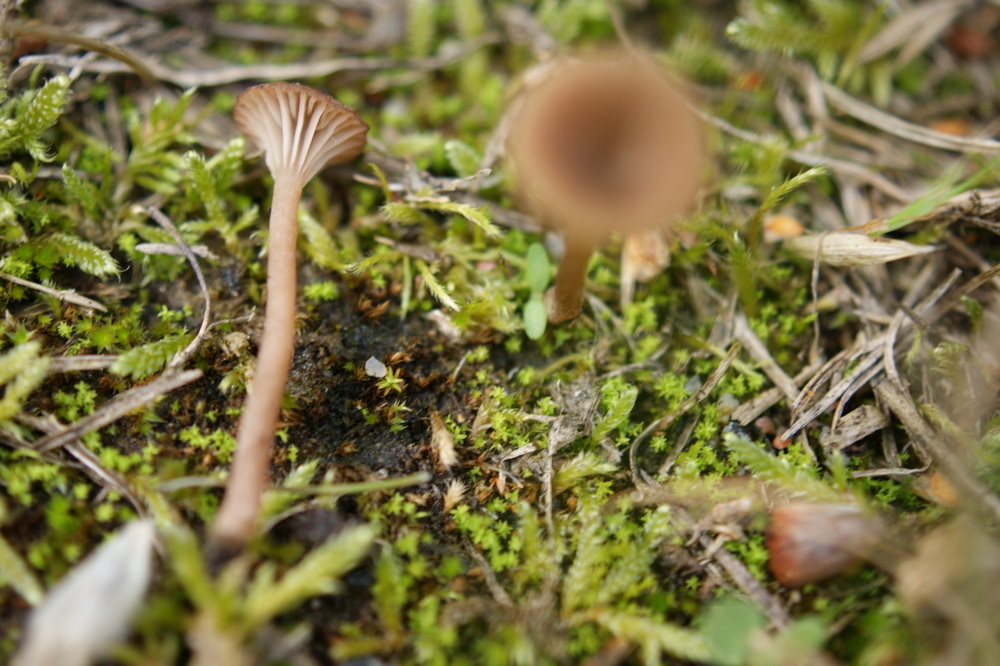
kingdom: Fungi
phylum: Basidiomycota
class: Agaricomycetes
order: Agaricales
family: Tricholomataceae
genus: Omphalina
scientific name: Omphalina subhepatica
